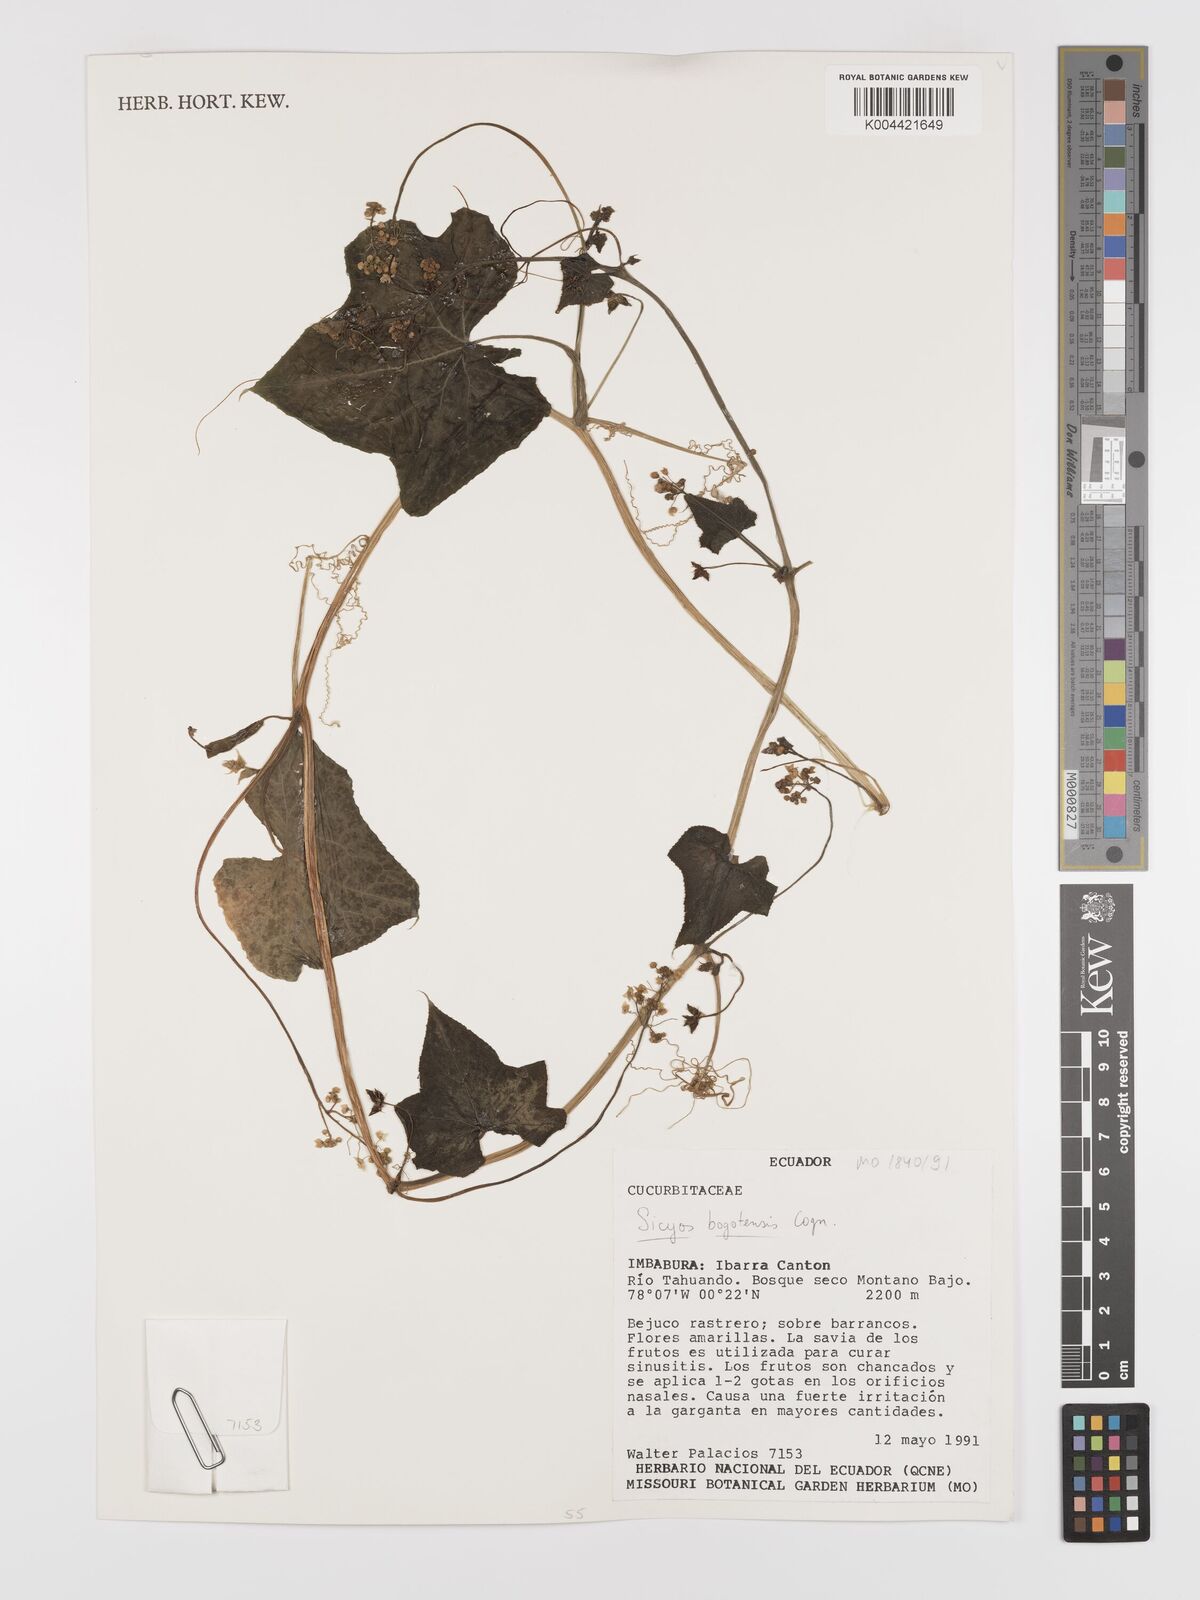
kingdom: Plantae
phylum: Tracheophyta
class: Magnoliopsida
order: Cucurbitales
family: Cucurbitaceae
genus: Sicyos
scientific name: Sicyos bogotensis
